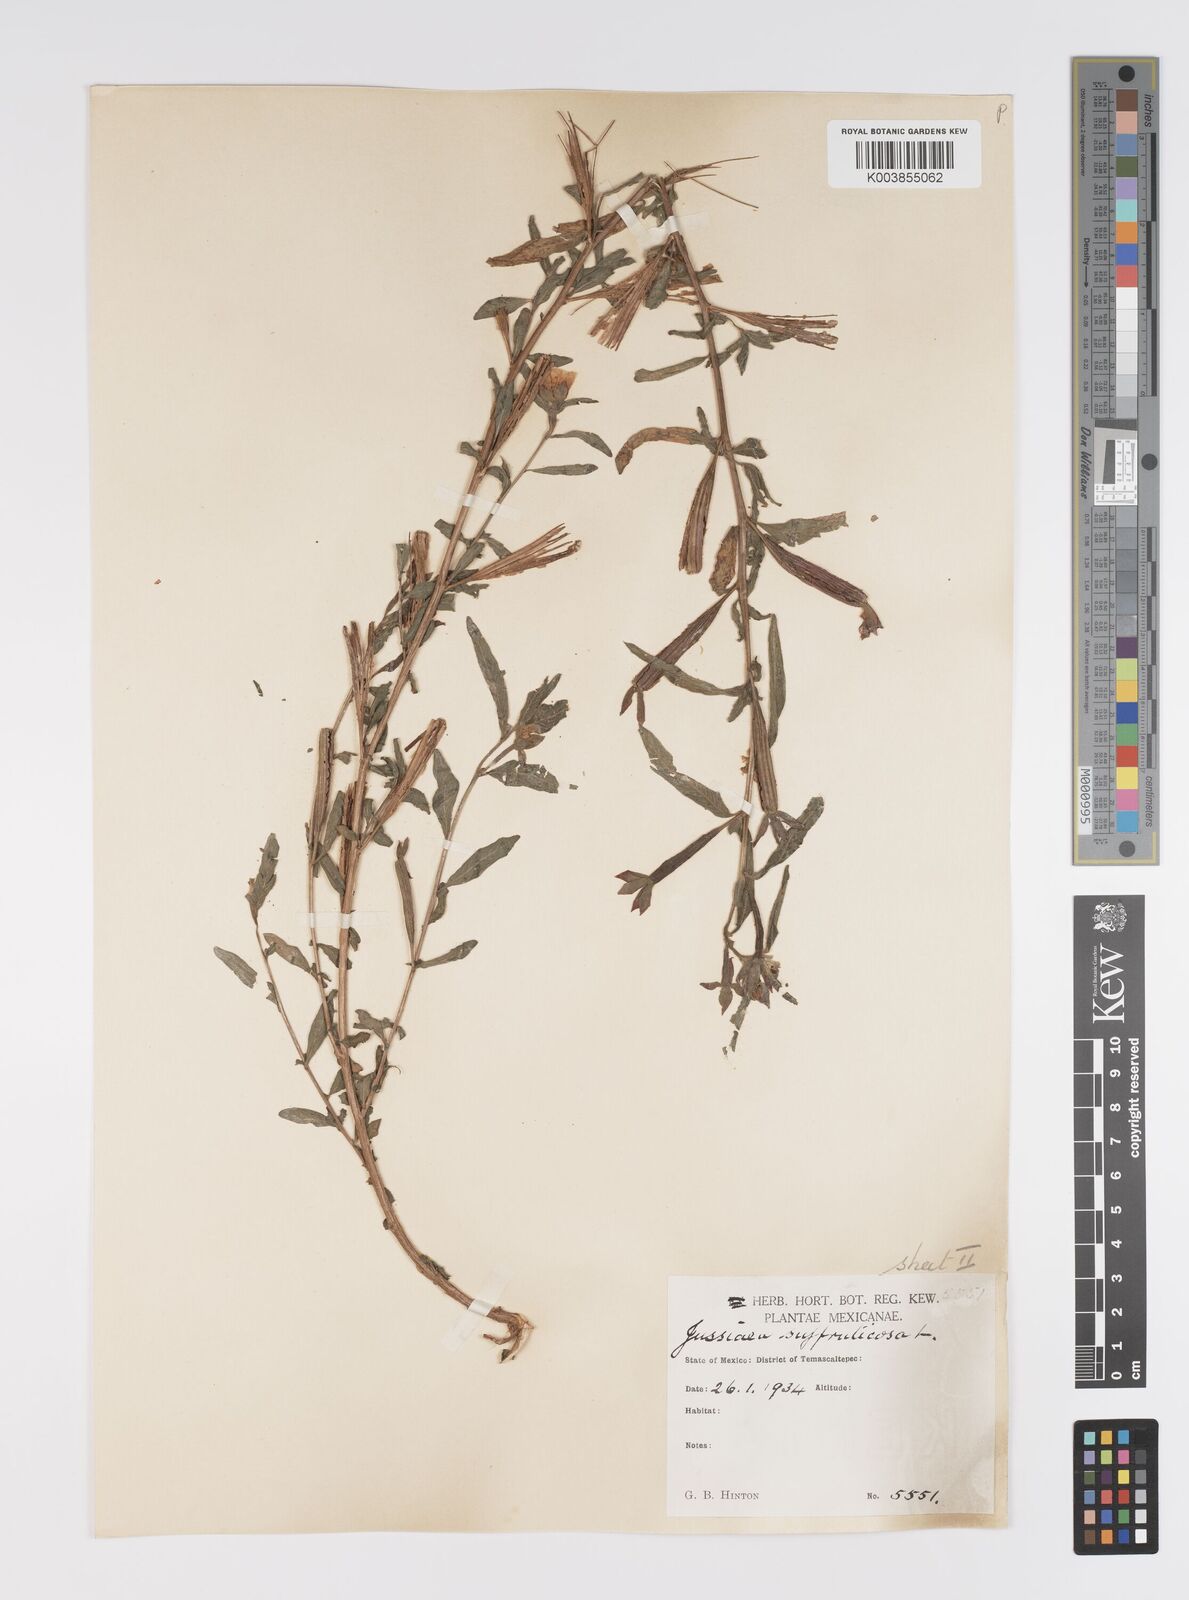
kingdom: Plantae
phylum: Tracheophyta
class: Magnoliopsida
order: Myrtales
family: Onagraceae
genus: Ludwigia
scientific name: Ludwigia octovalvis
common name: Water-primrose
